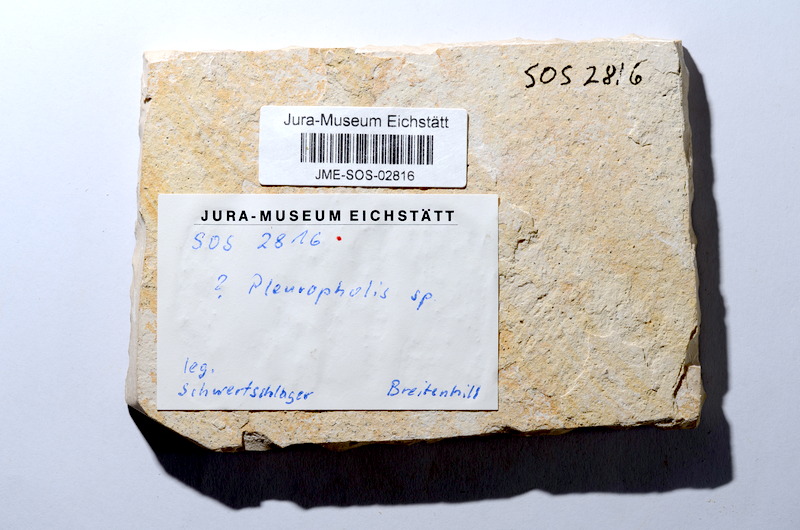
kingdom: Animalia
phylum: Chordata
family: Pleuropholidae
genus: Pleuropholis
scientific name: Pleuropholis
